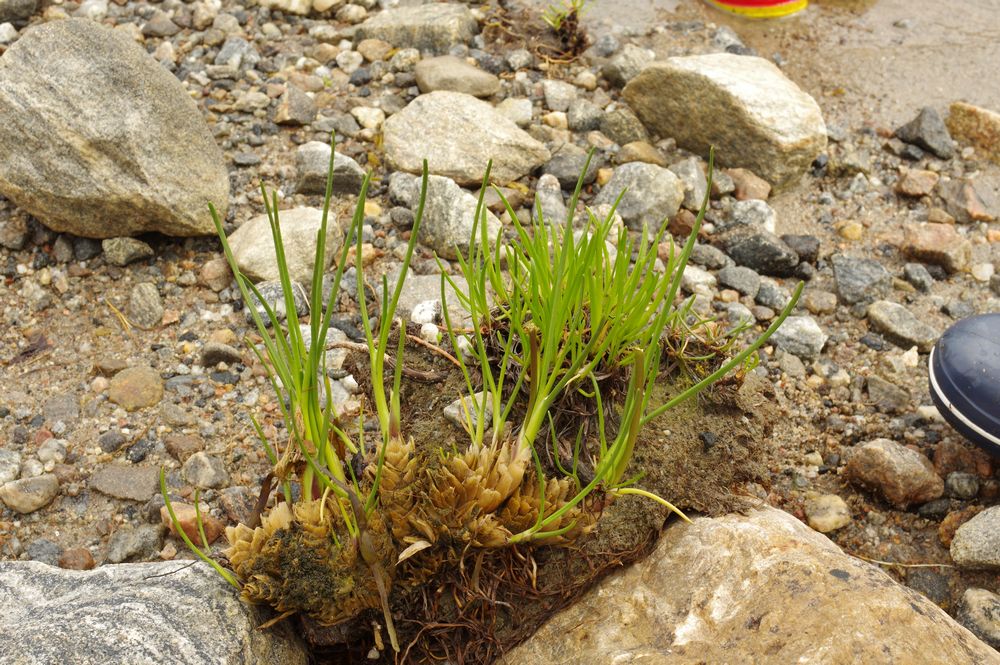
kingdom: Plantae
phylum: Tracheophyta
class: Liliopsida
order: Alismatales
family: Juncaginaceae
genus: Triglochin
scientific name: Triglochin maritima
